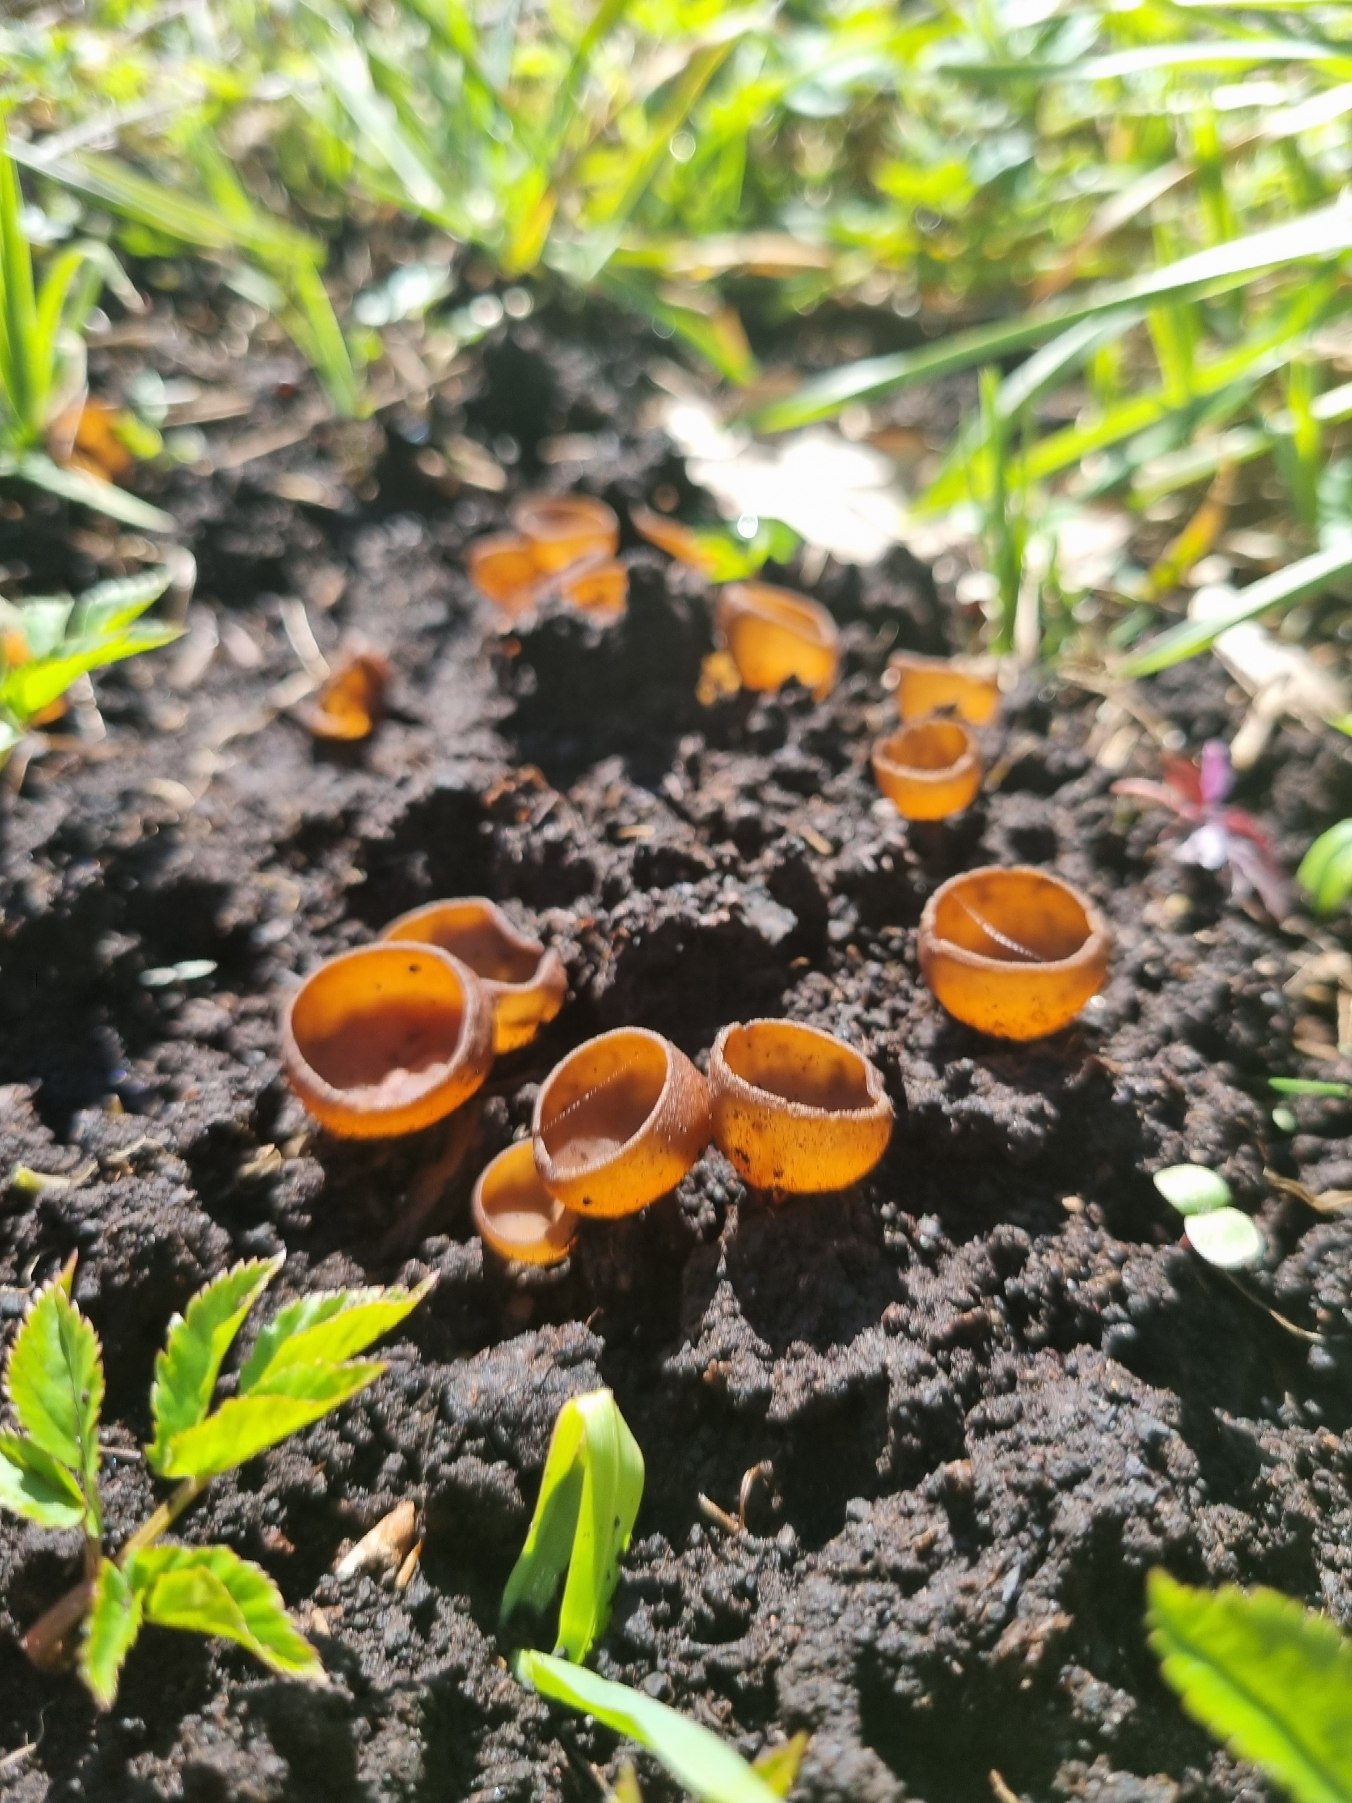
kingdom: Fungi
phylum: Ascomycota
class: Leotiomycetes
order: Helotiales
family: Sclerotiniaceae
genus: Dumontinia
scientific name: Dumontinia tuberosa
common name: Anemone-knoldskive
